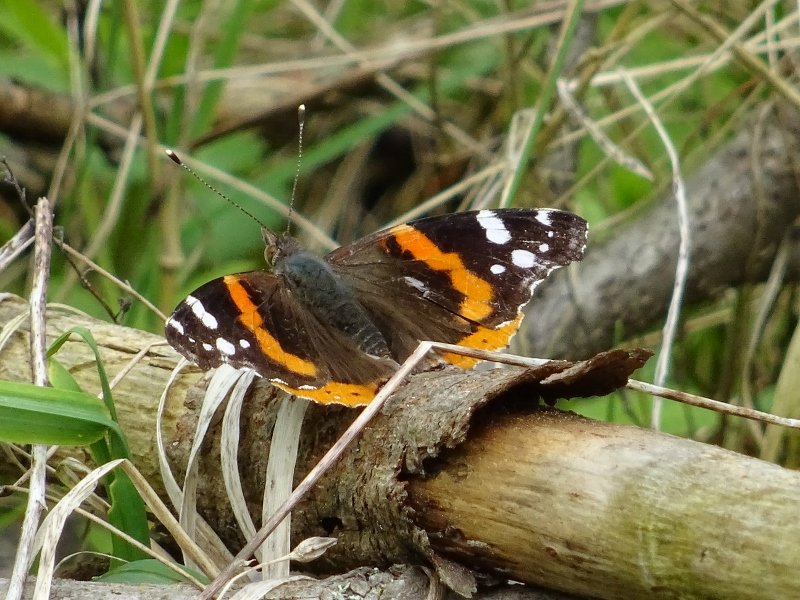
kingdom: Animalia
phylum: Arthropoda
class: Insecta
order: Lepidoptera
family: Nymphalidae
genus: Vanessa
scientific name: Vanessa atalanta
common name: Red Admiral
